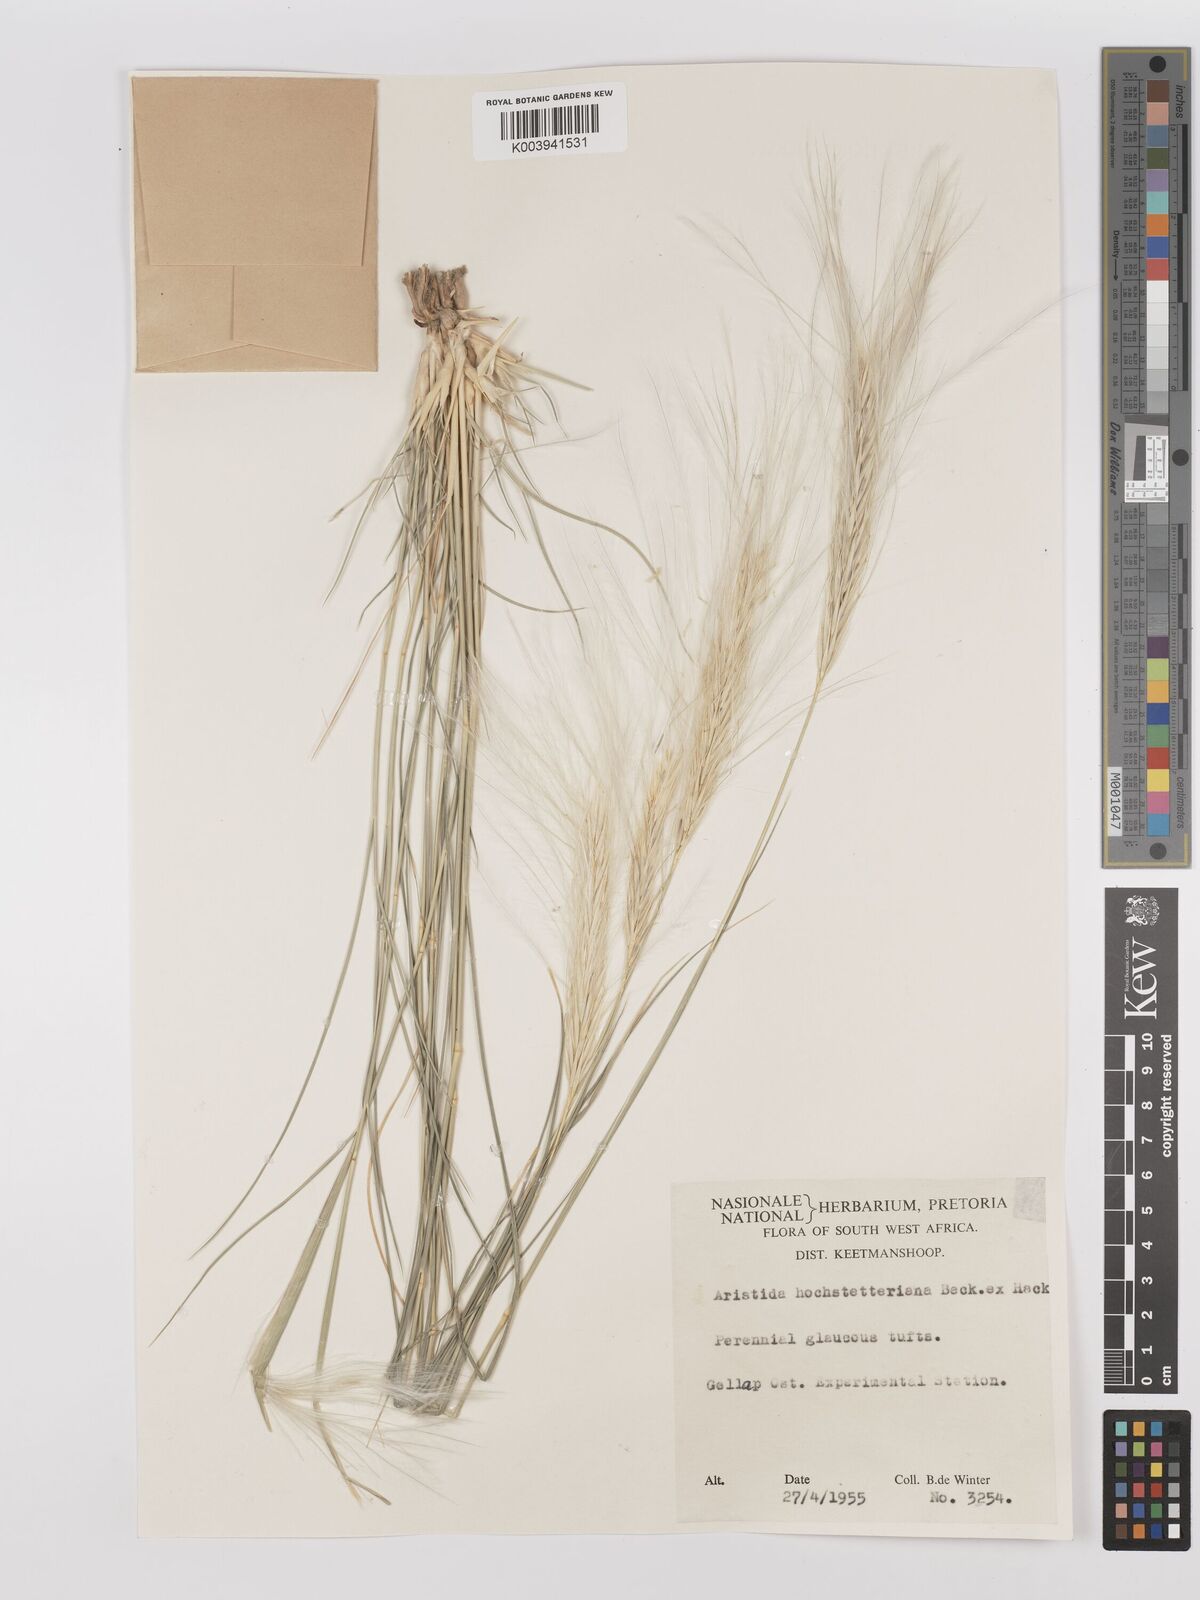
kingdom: Plantae
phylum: Tracheophyta
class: Liliopsida
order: Poales
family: Poaceae
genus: Stipagrostis
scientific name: Stipagrostis hochstetteriana
